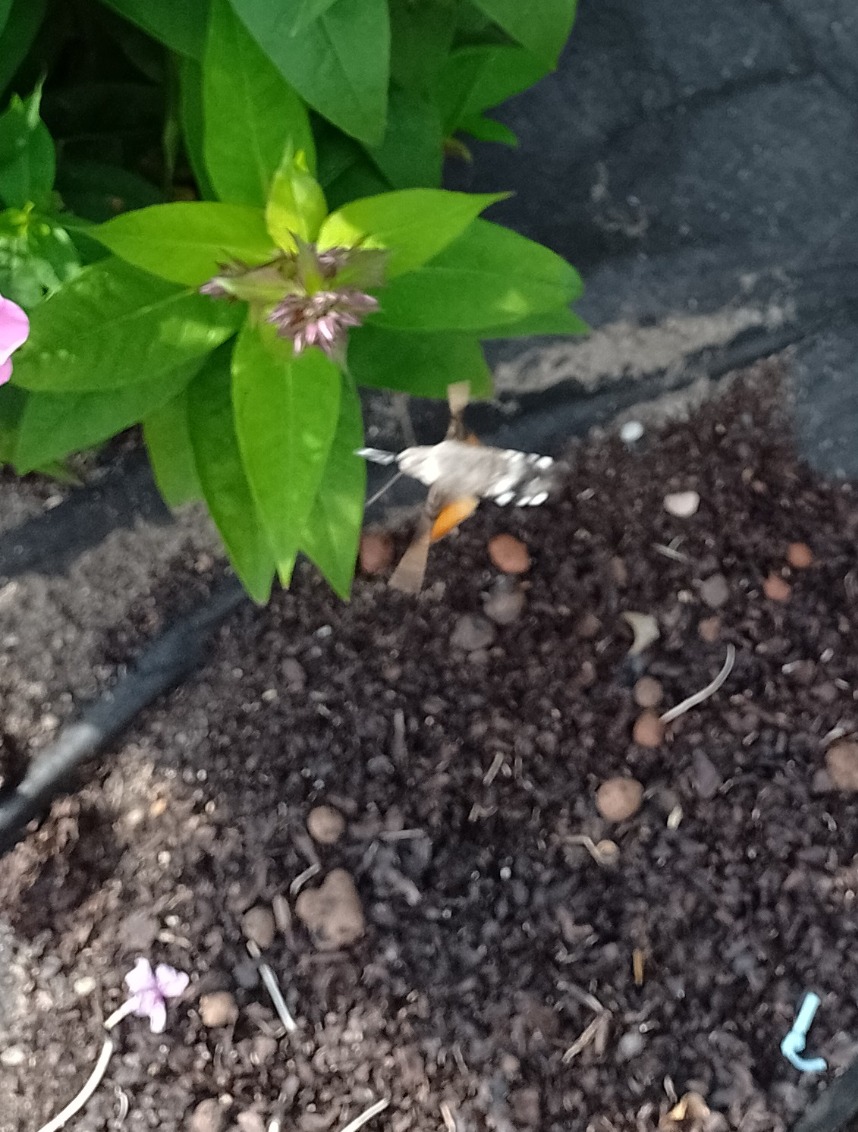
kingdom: Animalia
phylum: Arthropoda
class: Insecta
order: Lepidoptera
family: Sphingidae
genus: Macroglossum
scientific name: Macroglossum stellatarum
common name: Duehale
